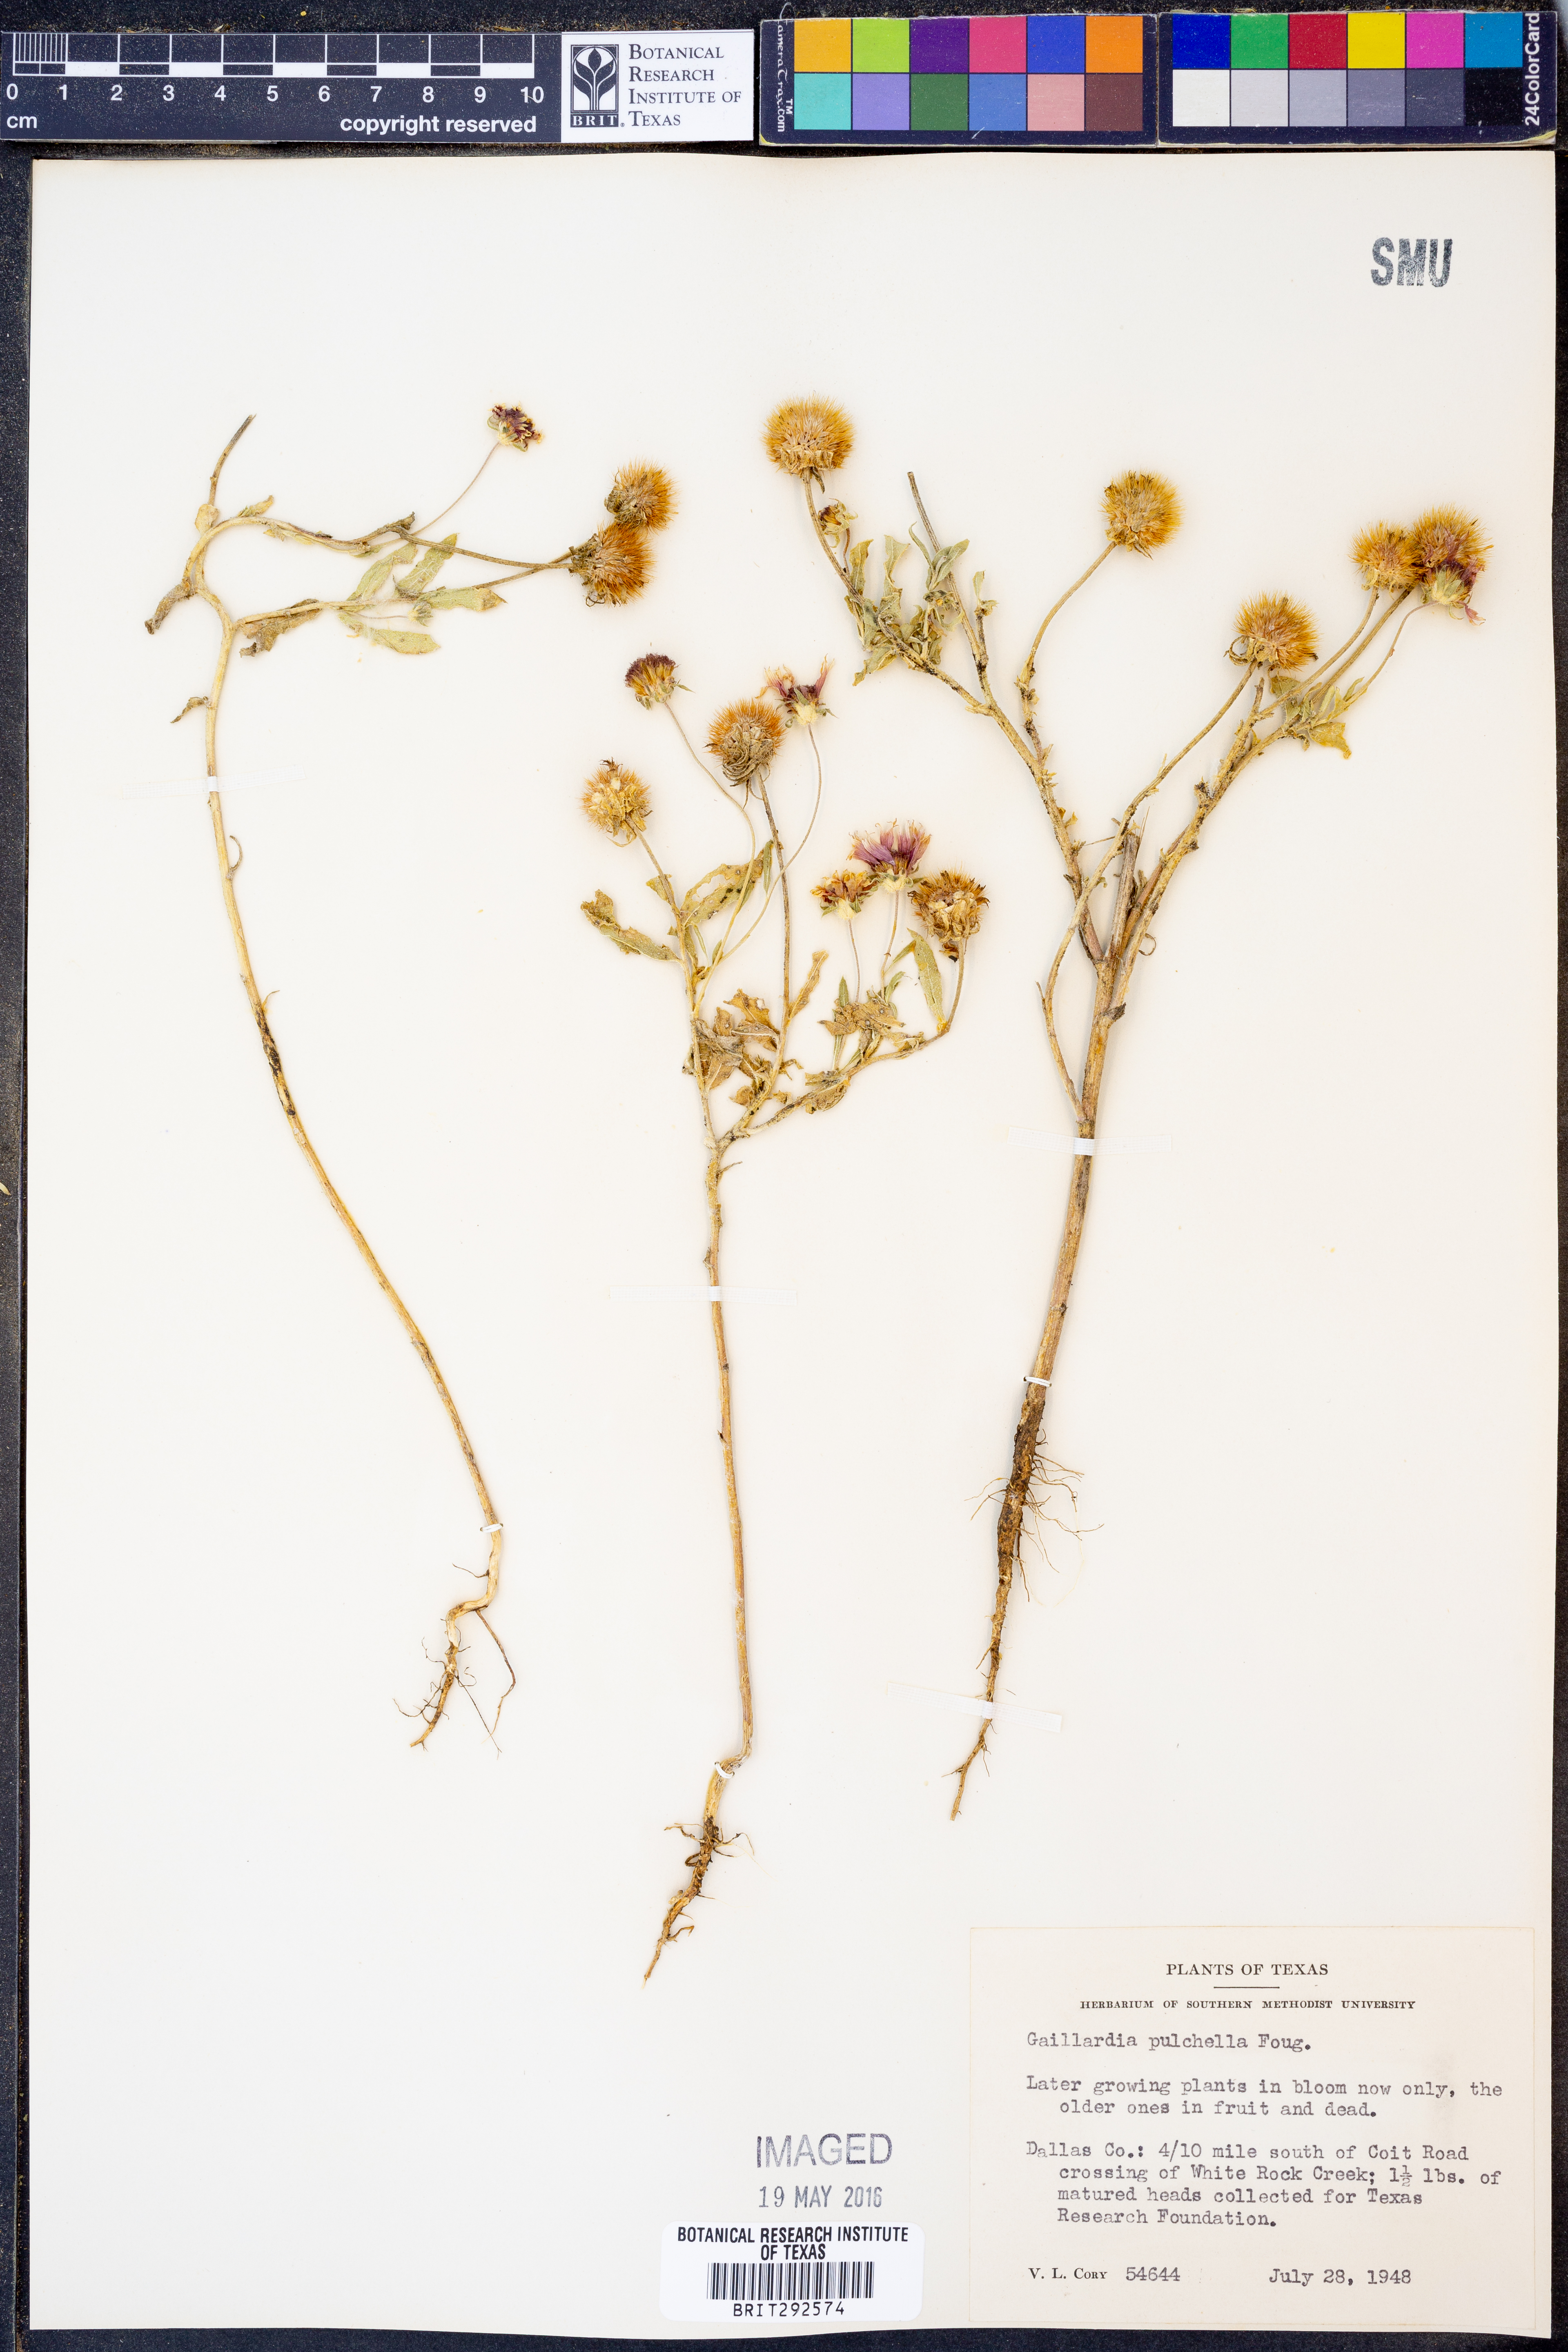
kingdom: Plantae
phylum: Tracheophyta
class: Magnoliopsida
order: Asterales
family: Asteraceae
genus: Gaillardia
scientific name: Gaillardia pulchella
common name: Firewheel
